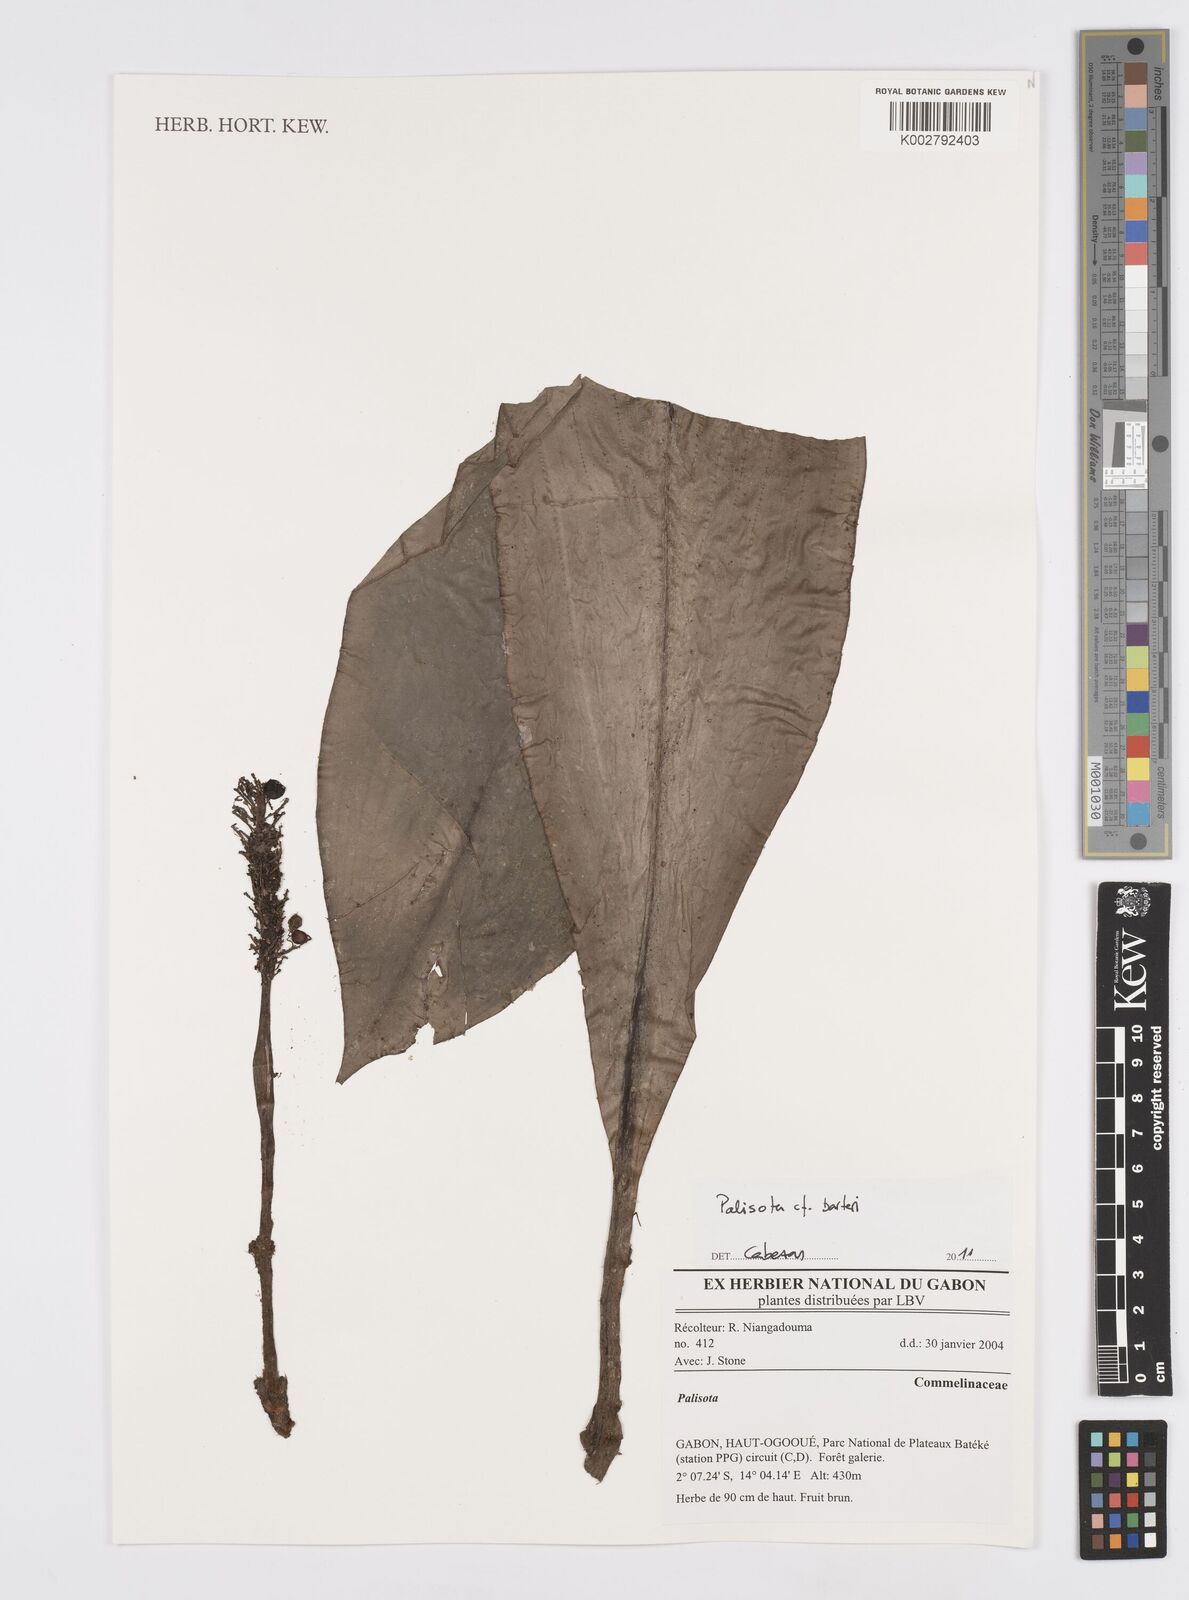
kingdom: Plantae
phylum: Tracheophyta
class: Liliopsida
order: Commelinales
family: Commelinaceae
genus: Palisota
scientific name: Palisota barteri
